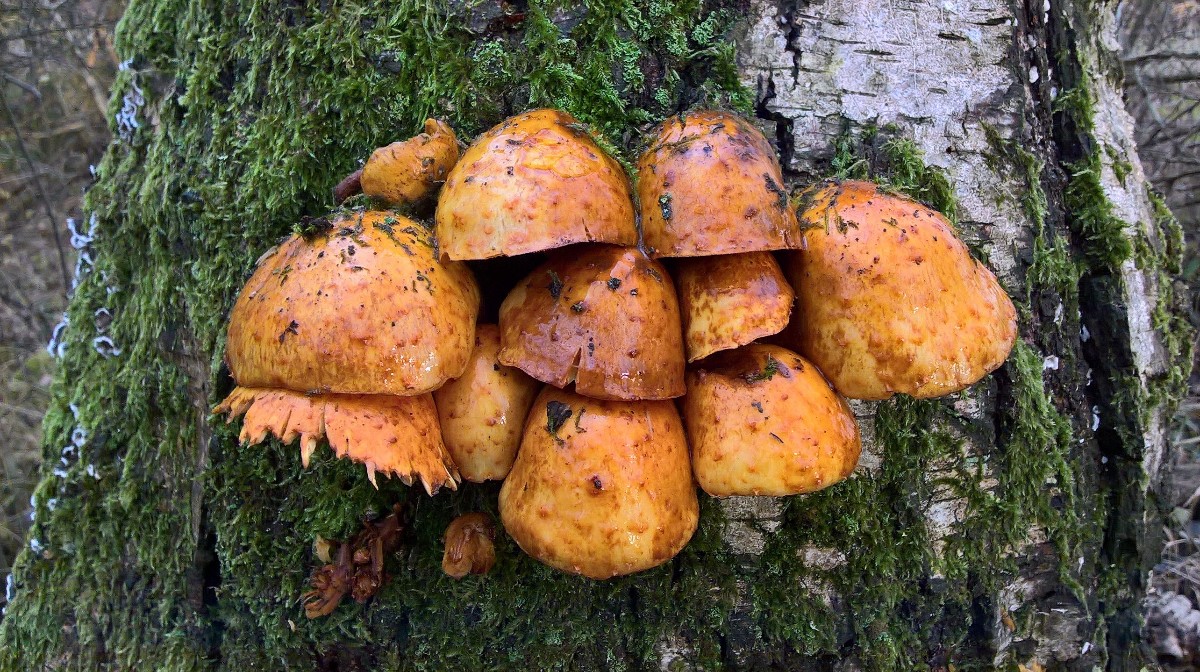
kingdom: Fungi
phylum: Basidiomycota
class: Agaricomycetes
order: Agaricales
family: Strophariaceae
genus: Pholiota
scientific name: Pholiota adiposa
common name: højtsiddende skælhat
